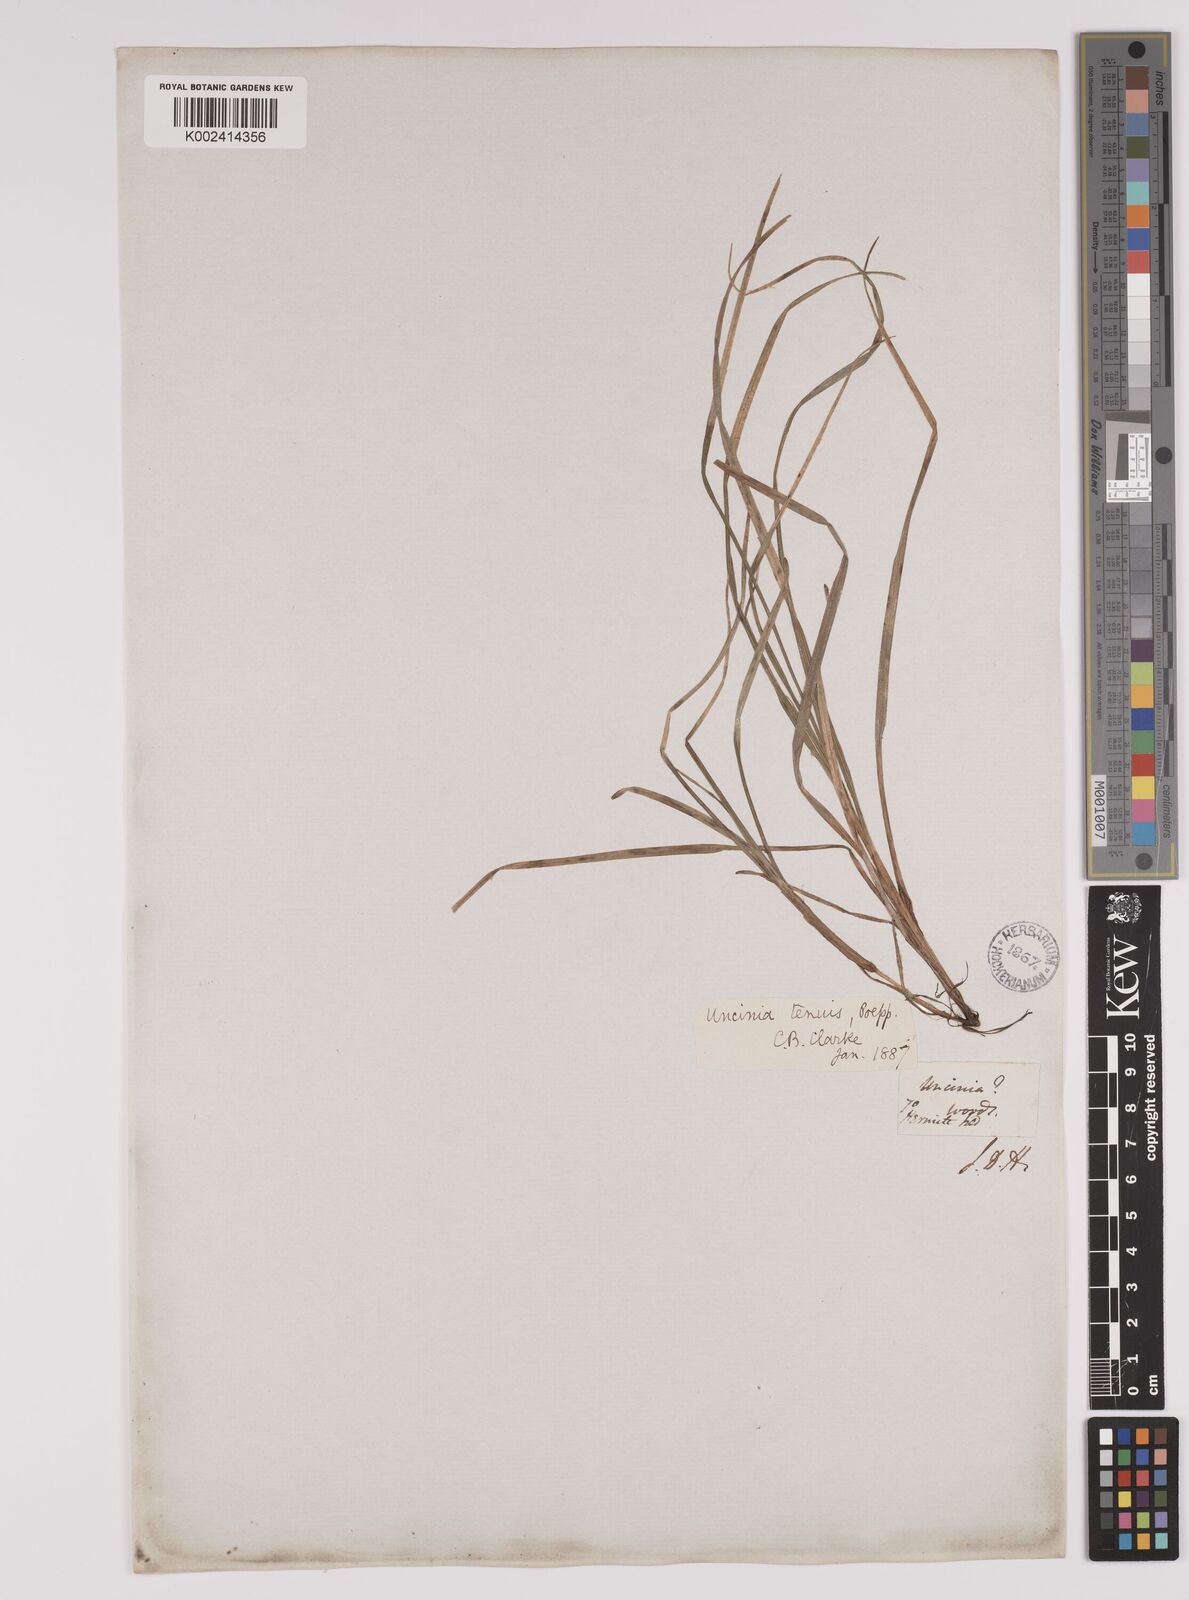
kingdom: Plantae
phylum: Tracheophyta
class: Liliopsida
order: Poales
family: Cyperaceae
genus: Carex
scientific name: Carex firmula
